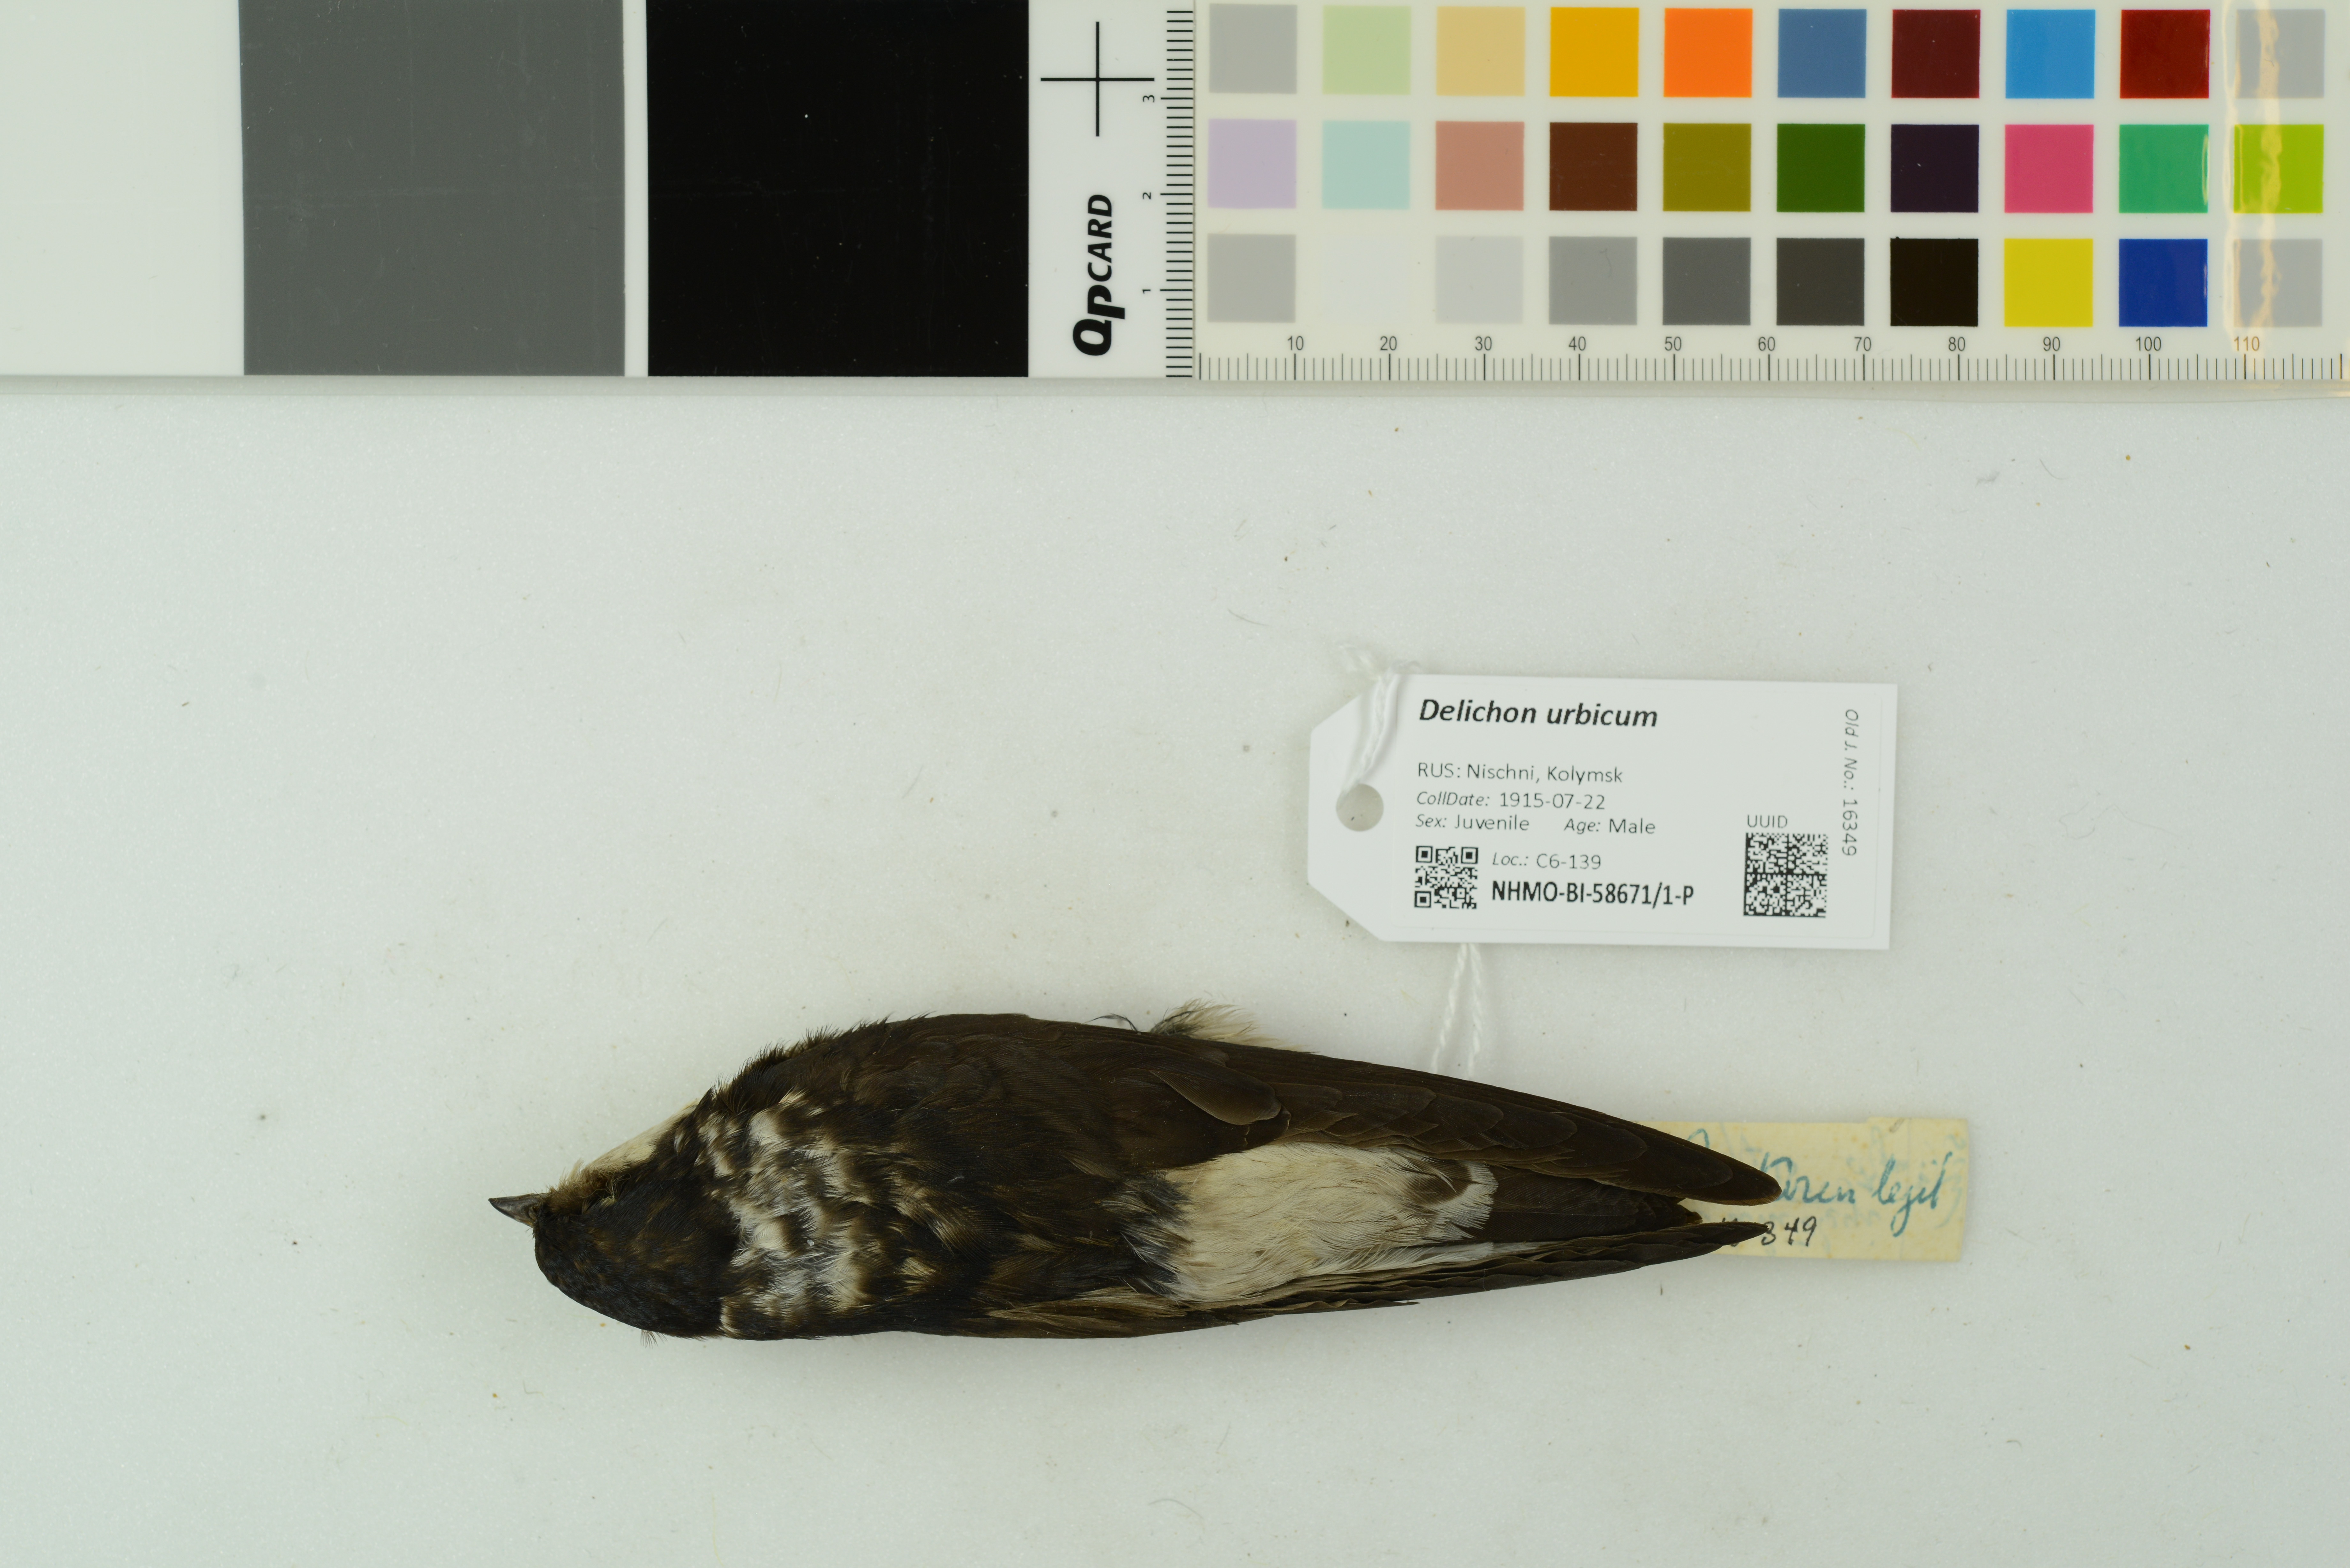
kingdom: Animalia
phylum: Chordata
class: Aves
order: Passeriformes
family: Hirundinidae
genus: Delichon
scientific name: Delichon urbicum
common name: Common house martin
